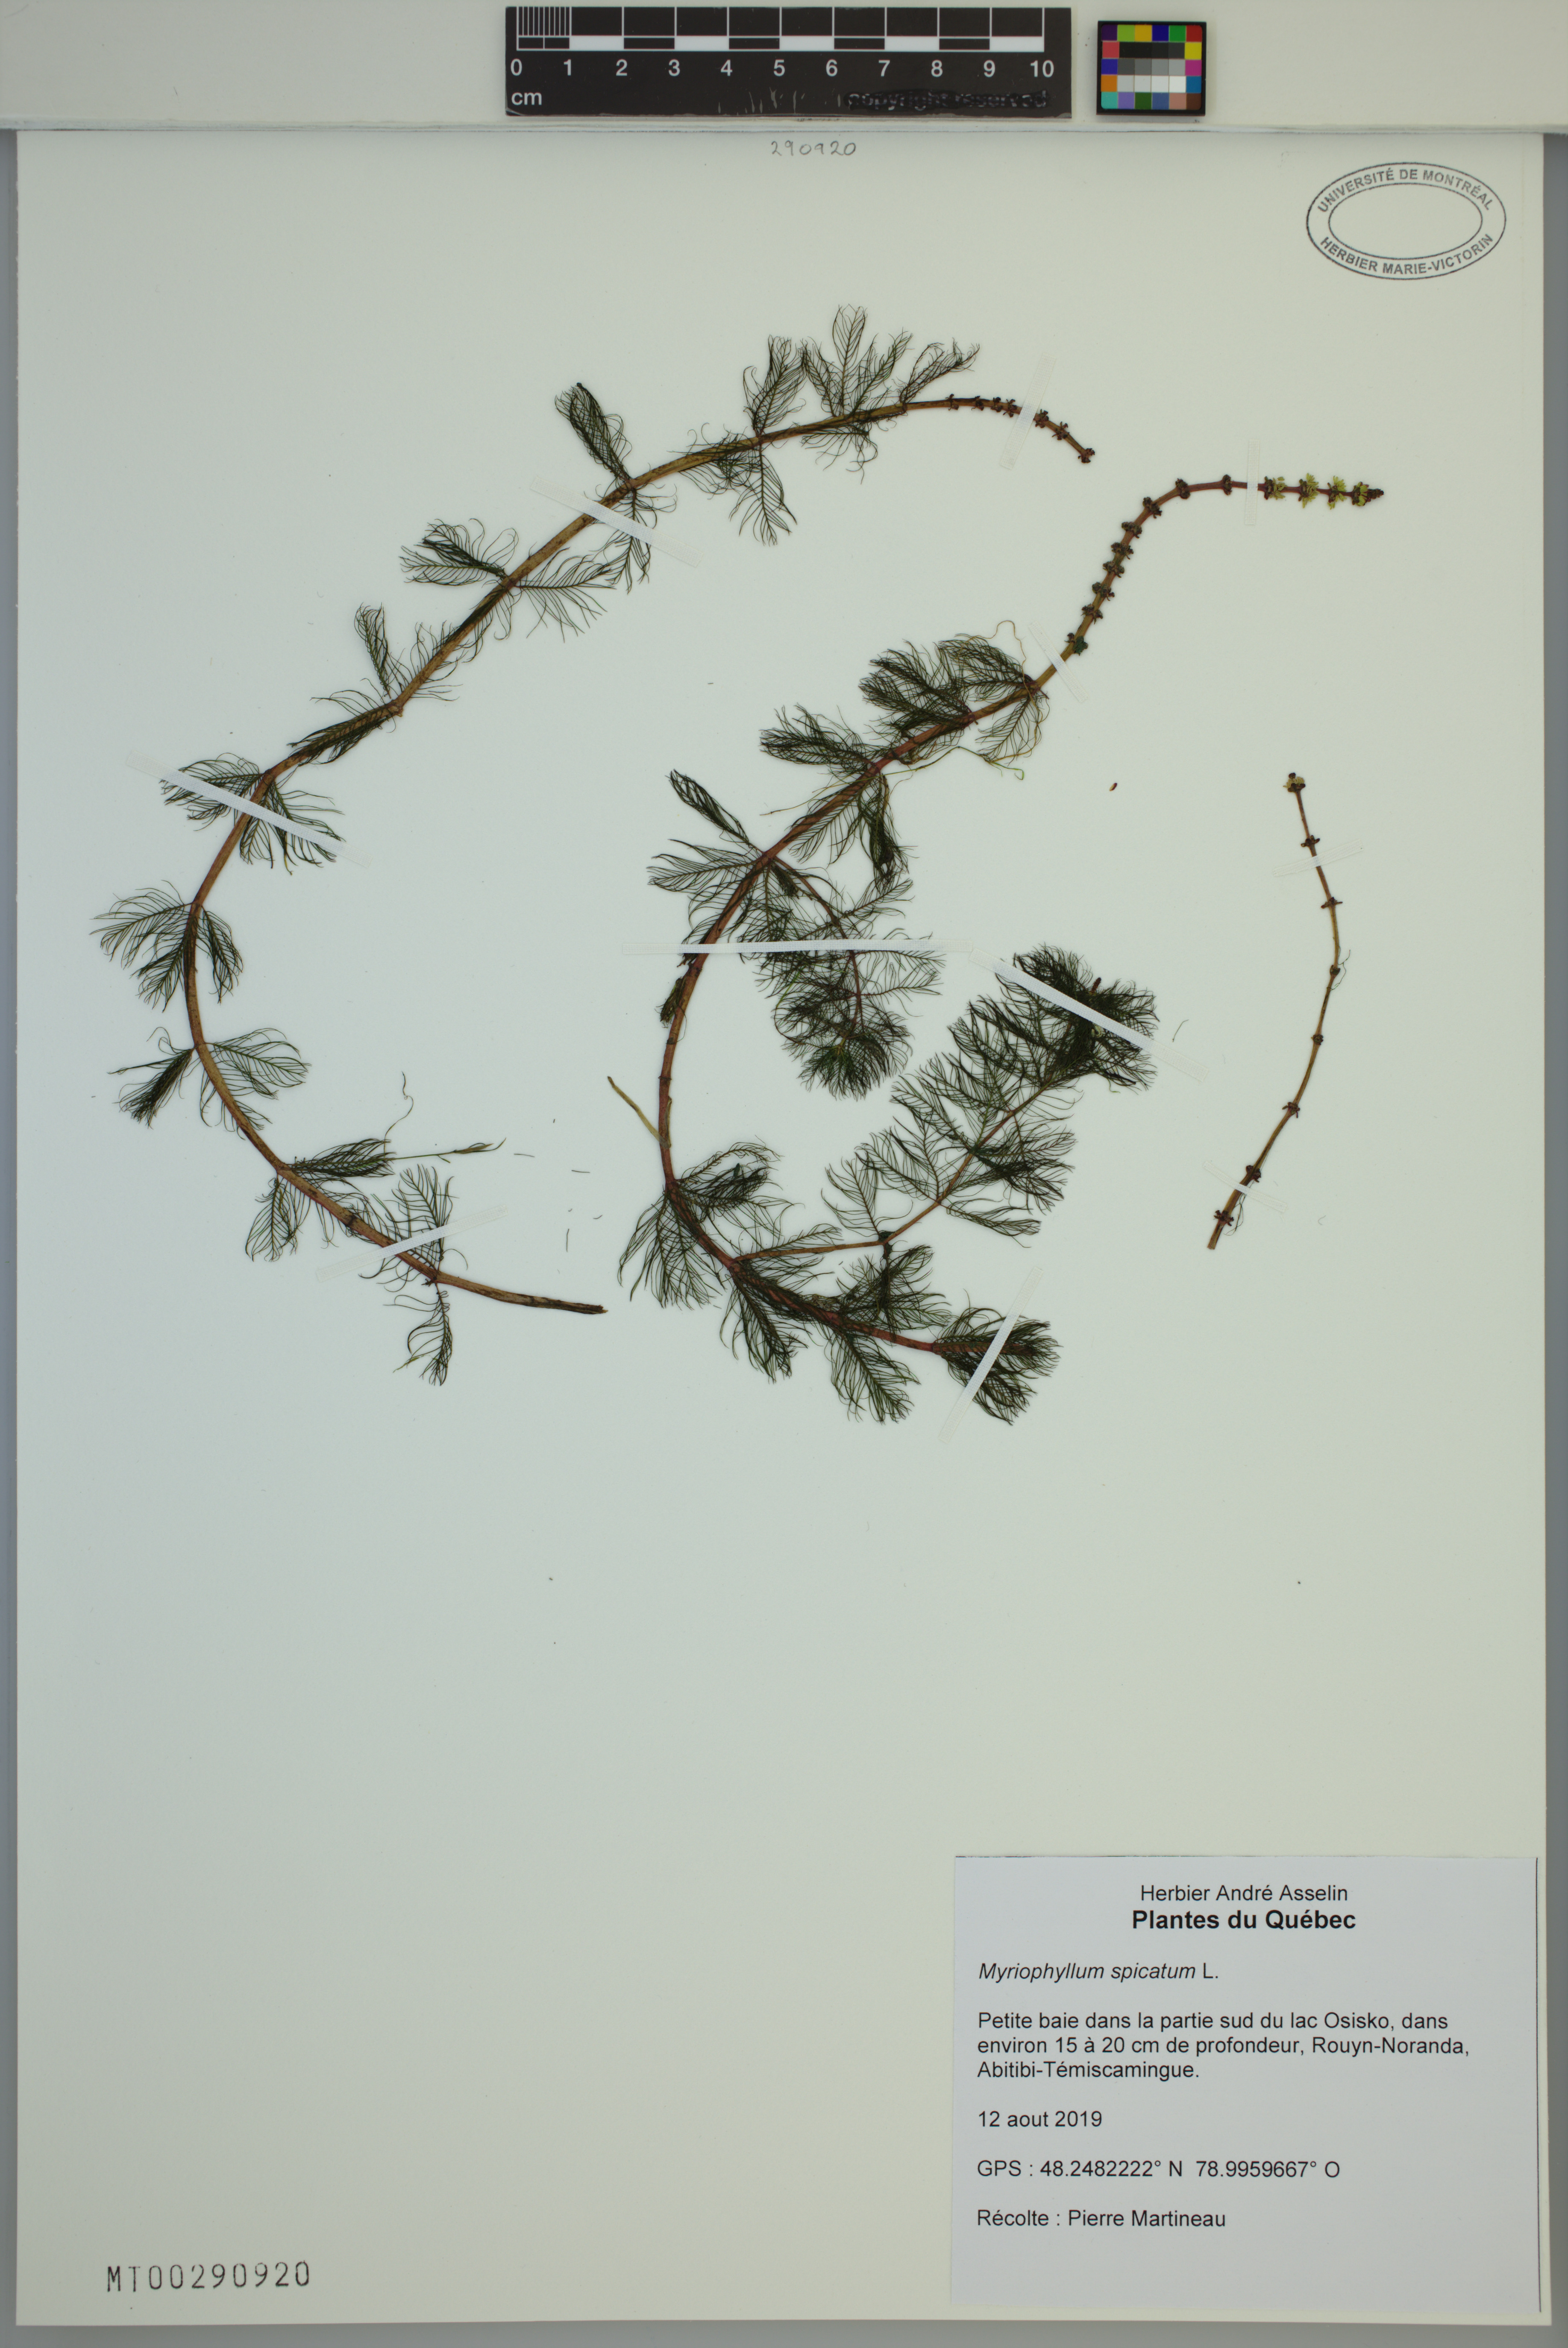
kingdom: Plantae
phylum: Tracheophyta
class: Magnoliopsida
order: Saxifragales
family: Haloragaceae
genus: Myriophyllum
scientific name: Myriophyllum spicatum
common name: Spiked water-milfoil
